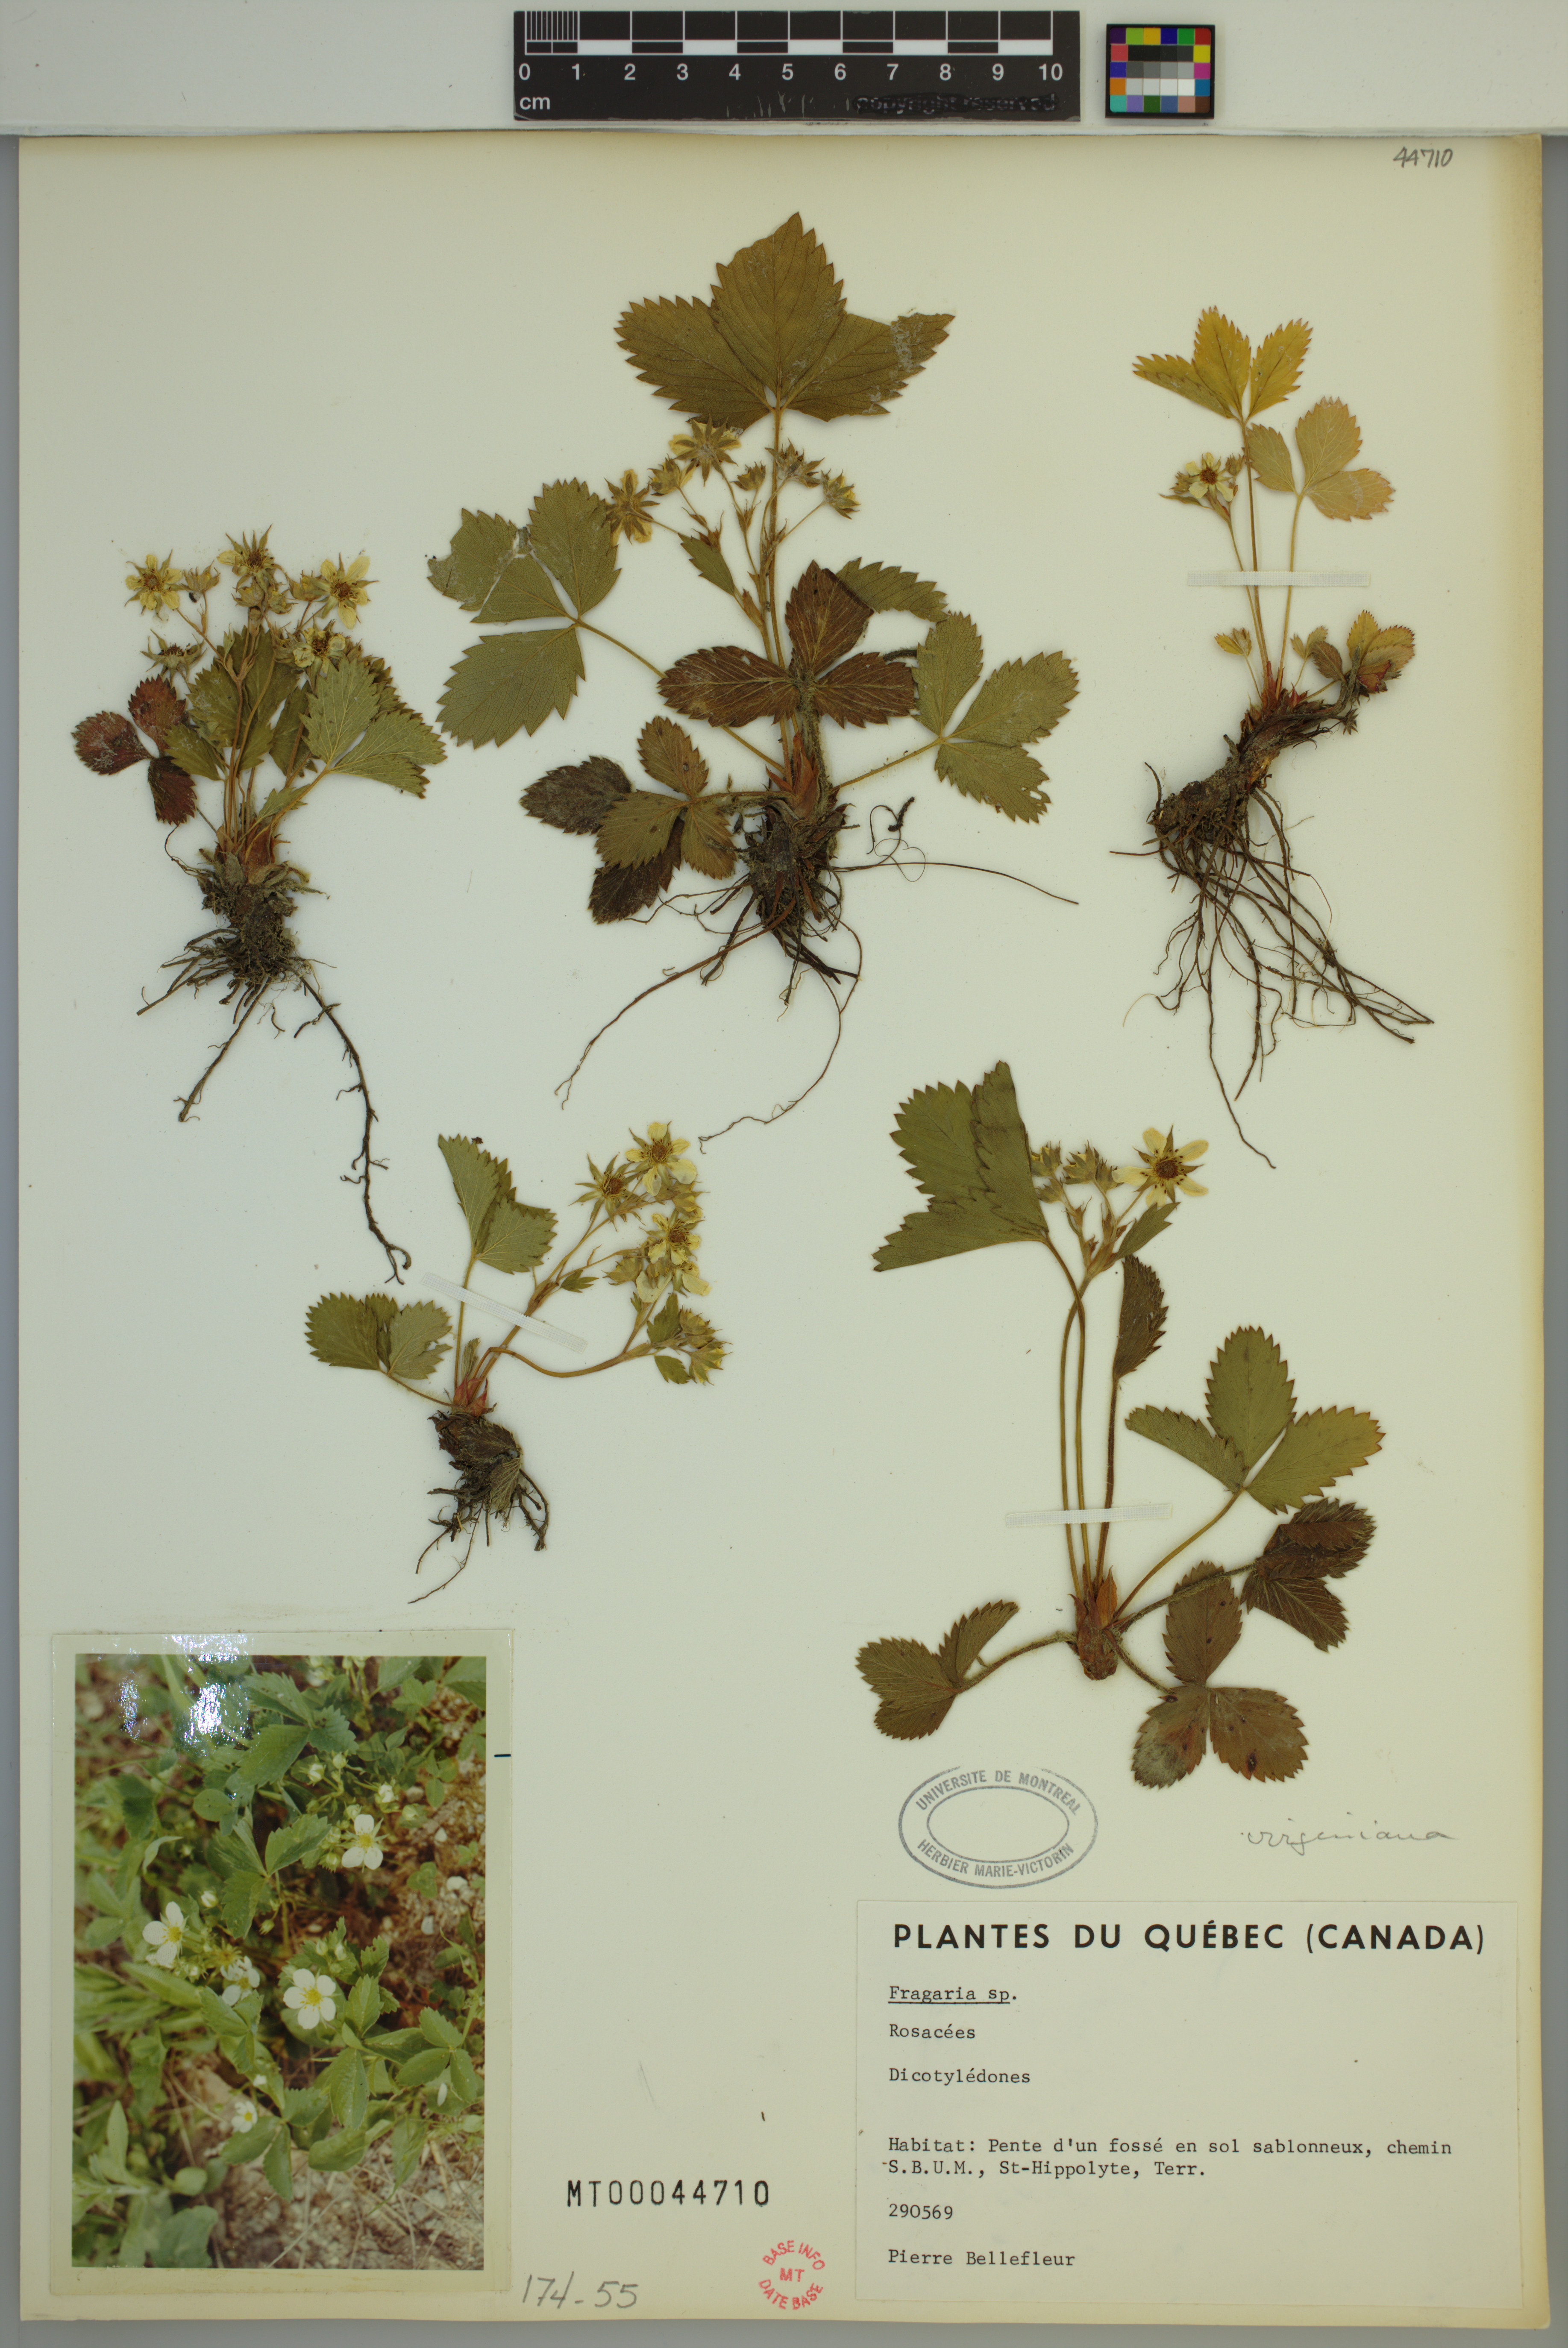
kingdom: Plantae
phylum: Tracheophyta
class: Magnoliopsida
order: Rosales
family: Rosaceae
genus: Fragaria
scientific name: Fragaria virginiana
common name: Thickleaved wild strawberry
